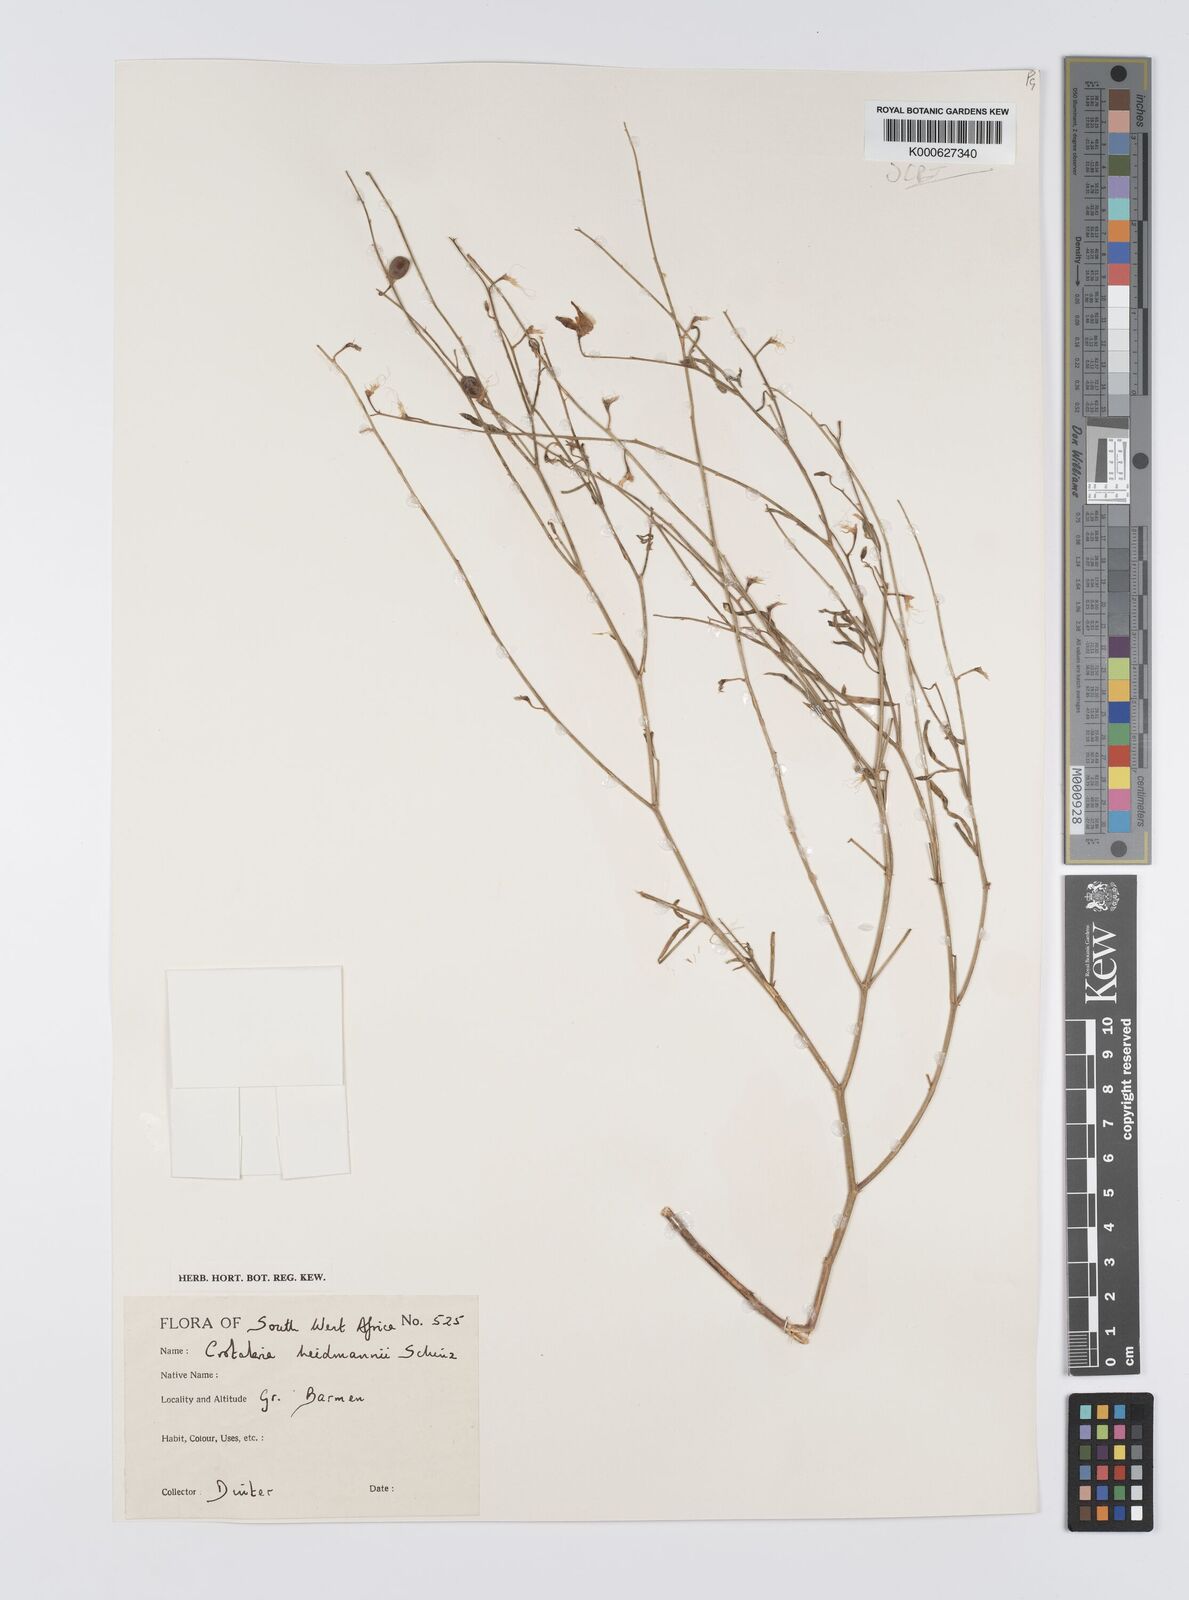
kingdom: Plantae
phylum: Tracheophyta
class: Magnoliopsida
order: Fabales
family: Fabaceae
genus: Crotalaria
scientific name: Crotalaria heidmannii
